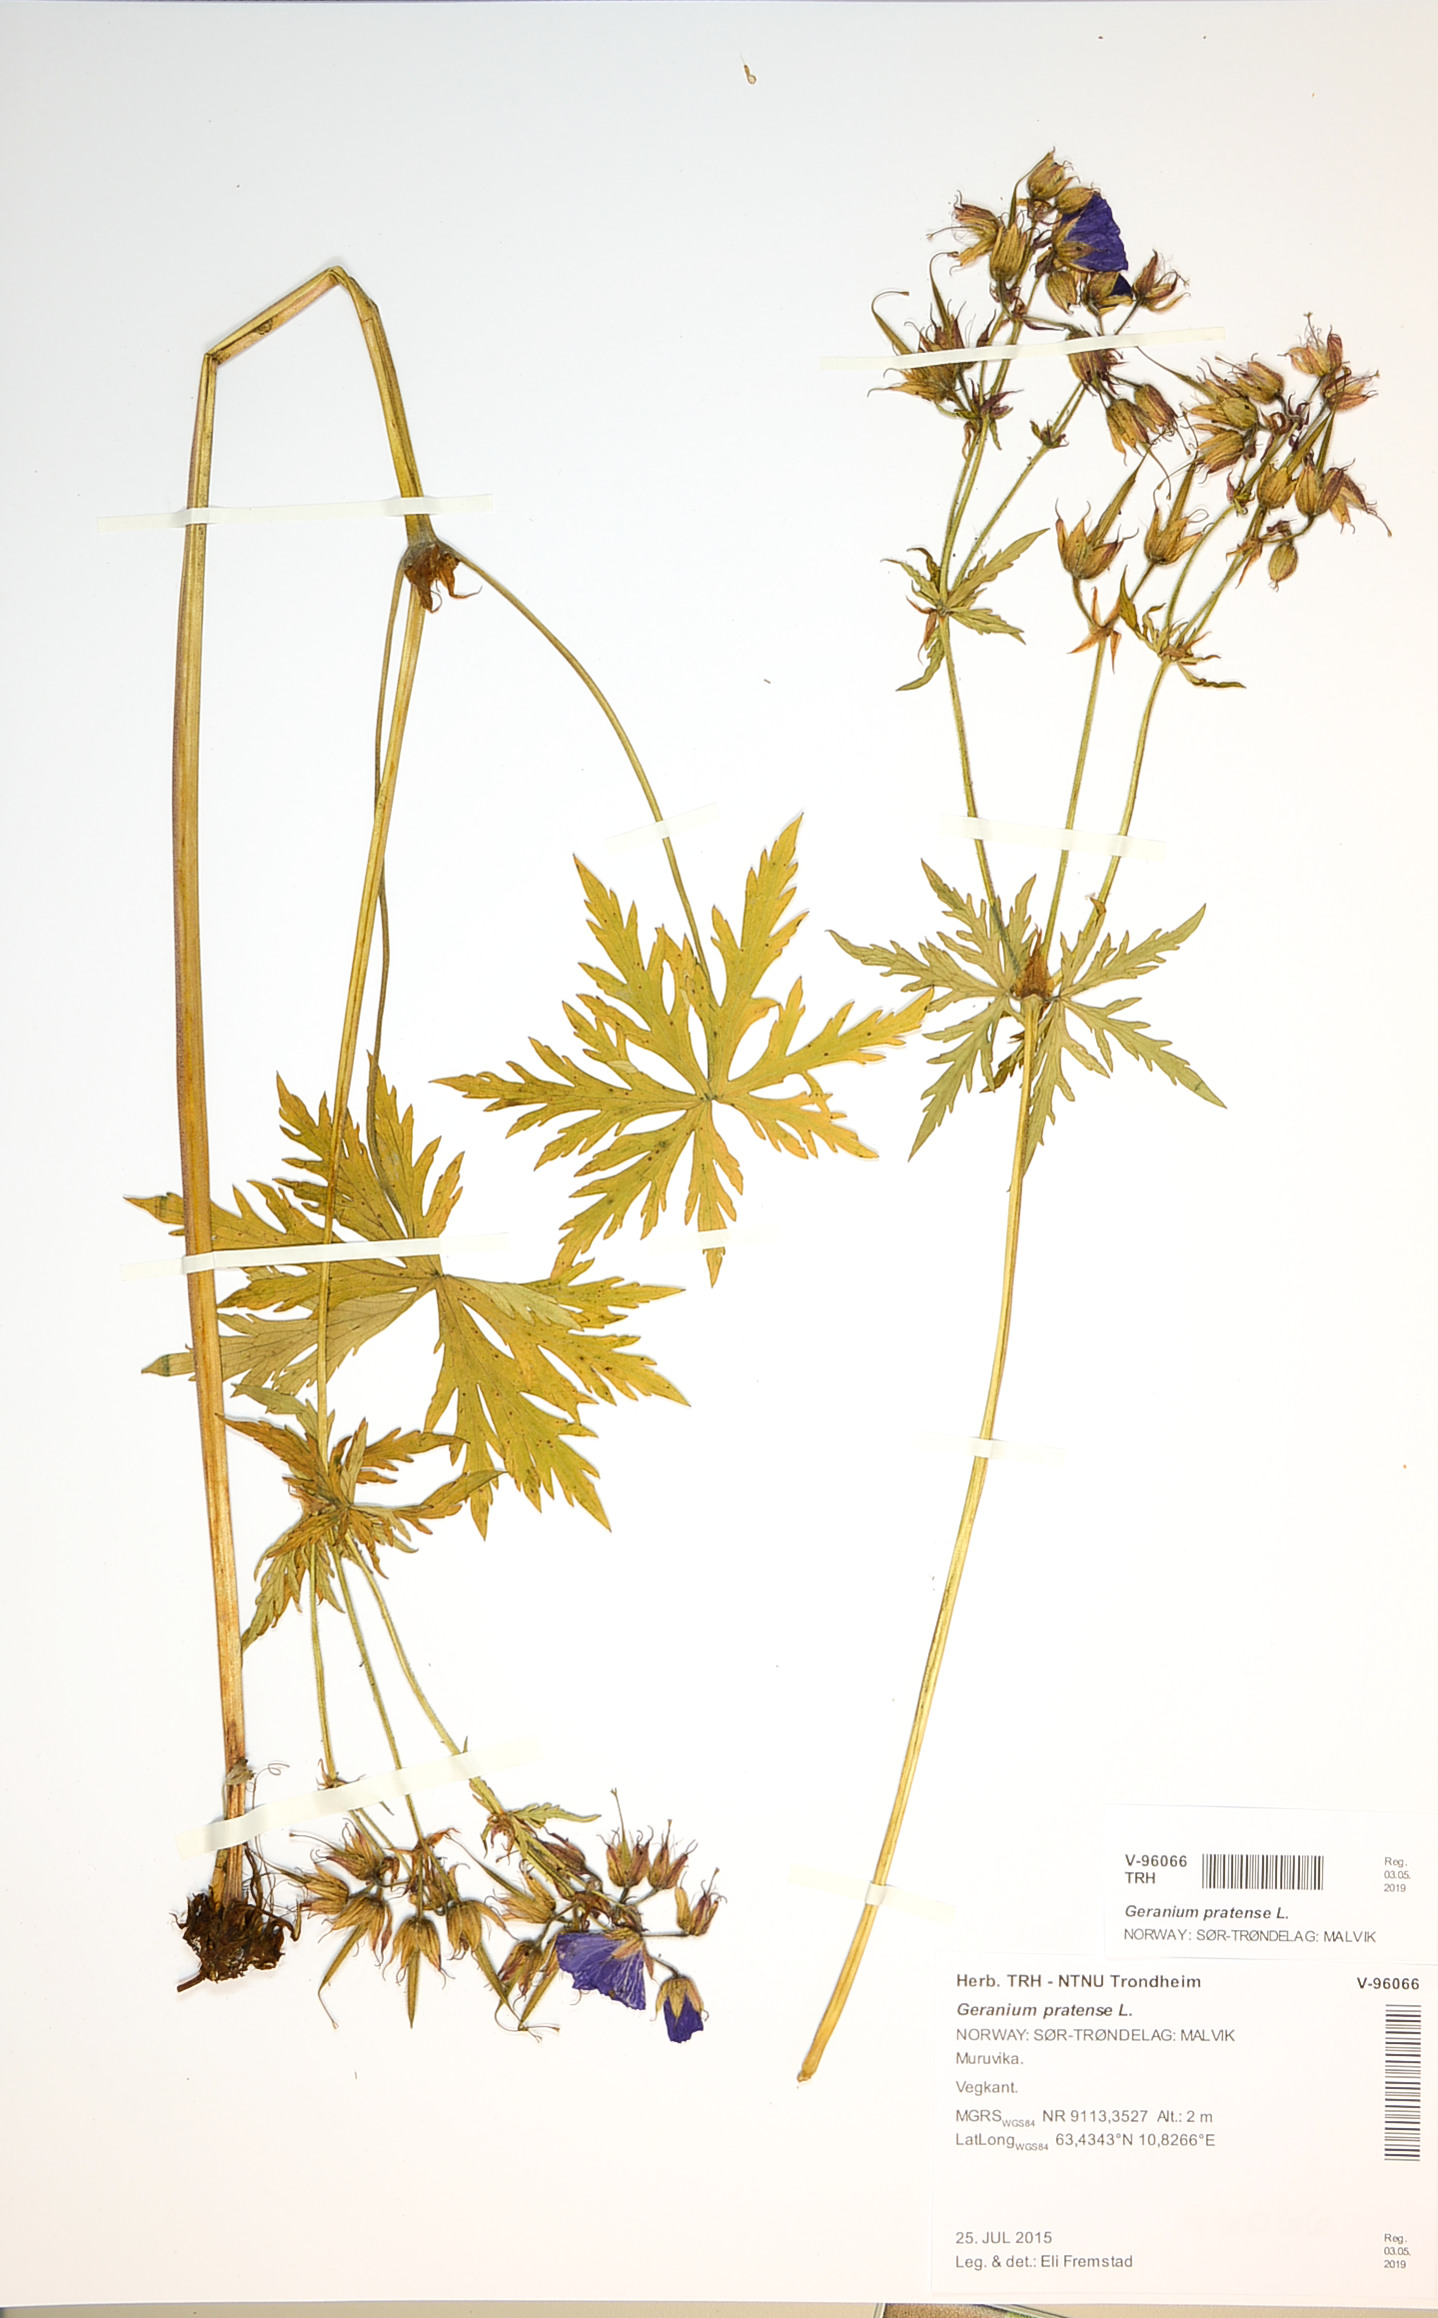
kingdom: Plantae
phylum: Tracheophyta
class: Magnoliopsida
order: Geraniales
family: Geraniaceae
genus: Geranium
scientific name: Geranium pratense
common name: Meadow crane's-bill
